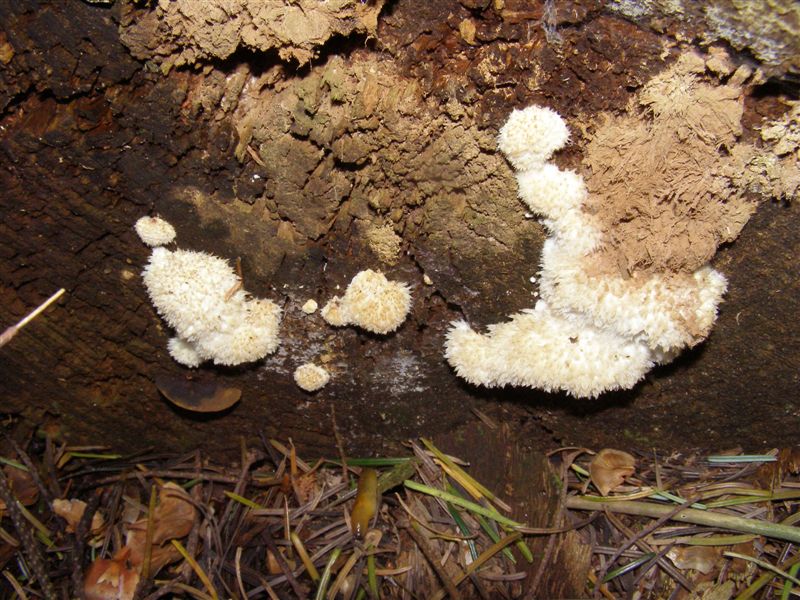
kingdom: Fungi
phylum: Basidiomycota
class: Agaricomycetes
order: Polyporales
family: Dacryobolaceae
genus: Postia
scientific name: Postia ptychogaster
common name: støvende kødporesvamp
